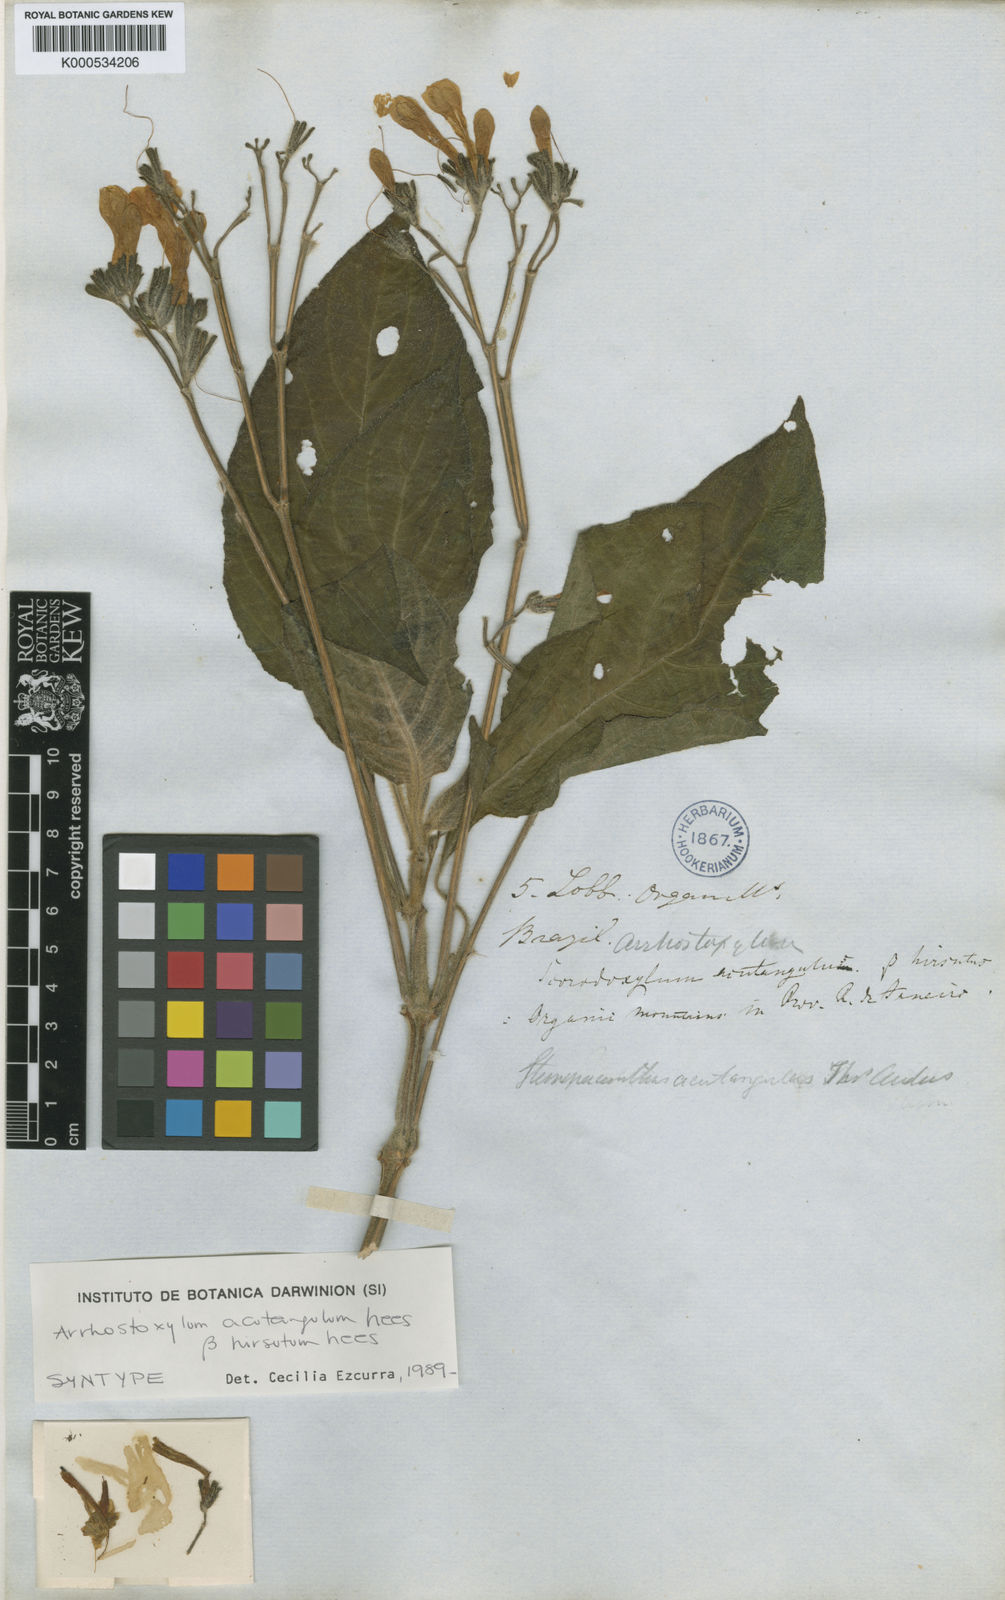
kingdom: Plantae
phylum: Tracheophyta
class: Magnoliopsida
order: Lamiales
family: Acanthaceae
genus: Ruellia
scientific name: Ruellia acutangula
